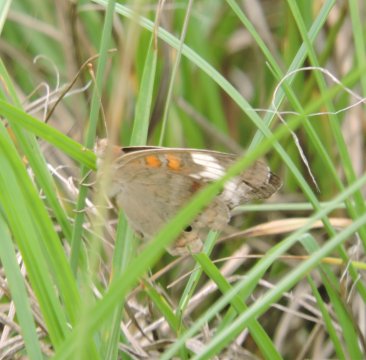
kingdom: Animalia
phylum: Arthropoda
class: Insecta
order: Lepidoptera
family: Nymphalidae
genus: Junonia
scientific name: Junonia coenia
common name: Common Buckeye
